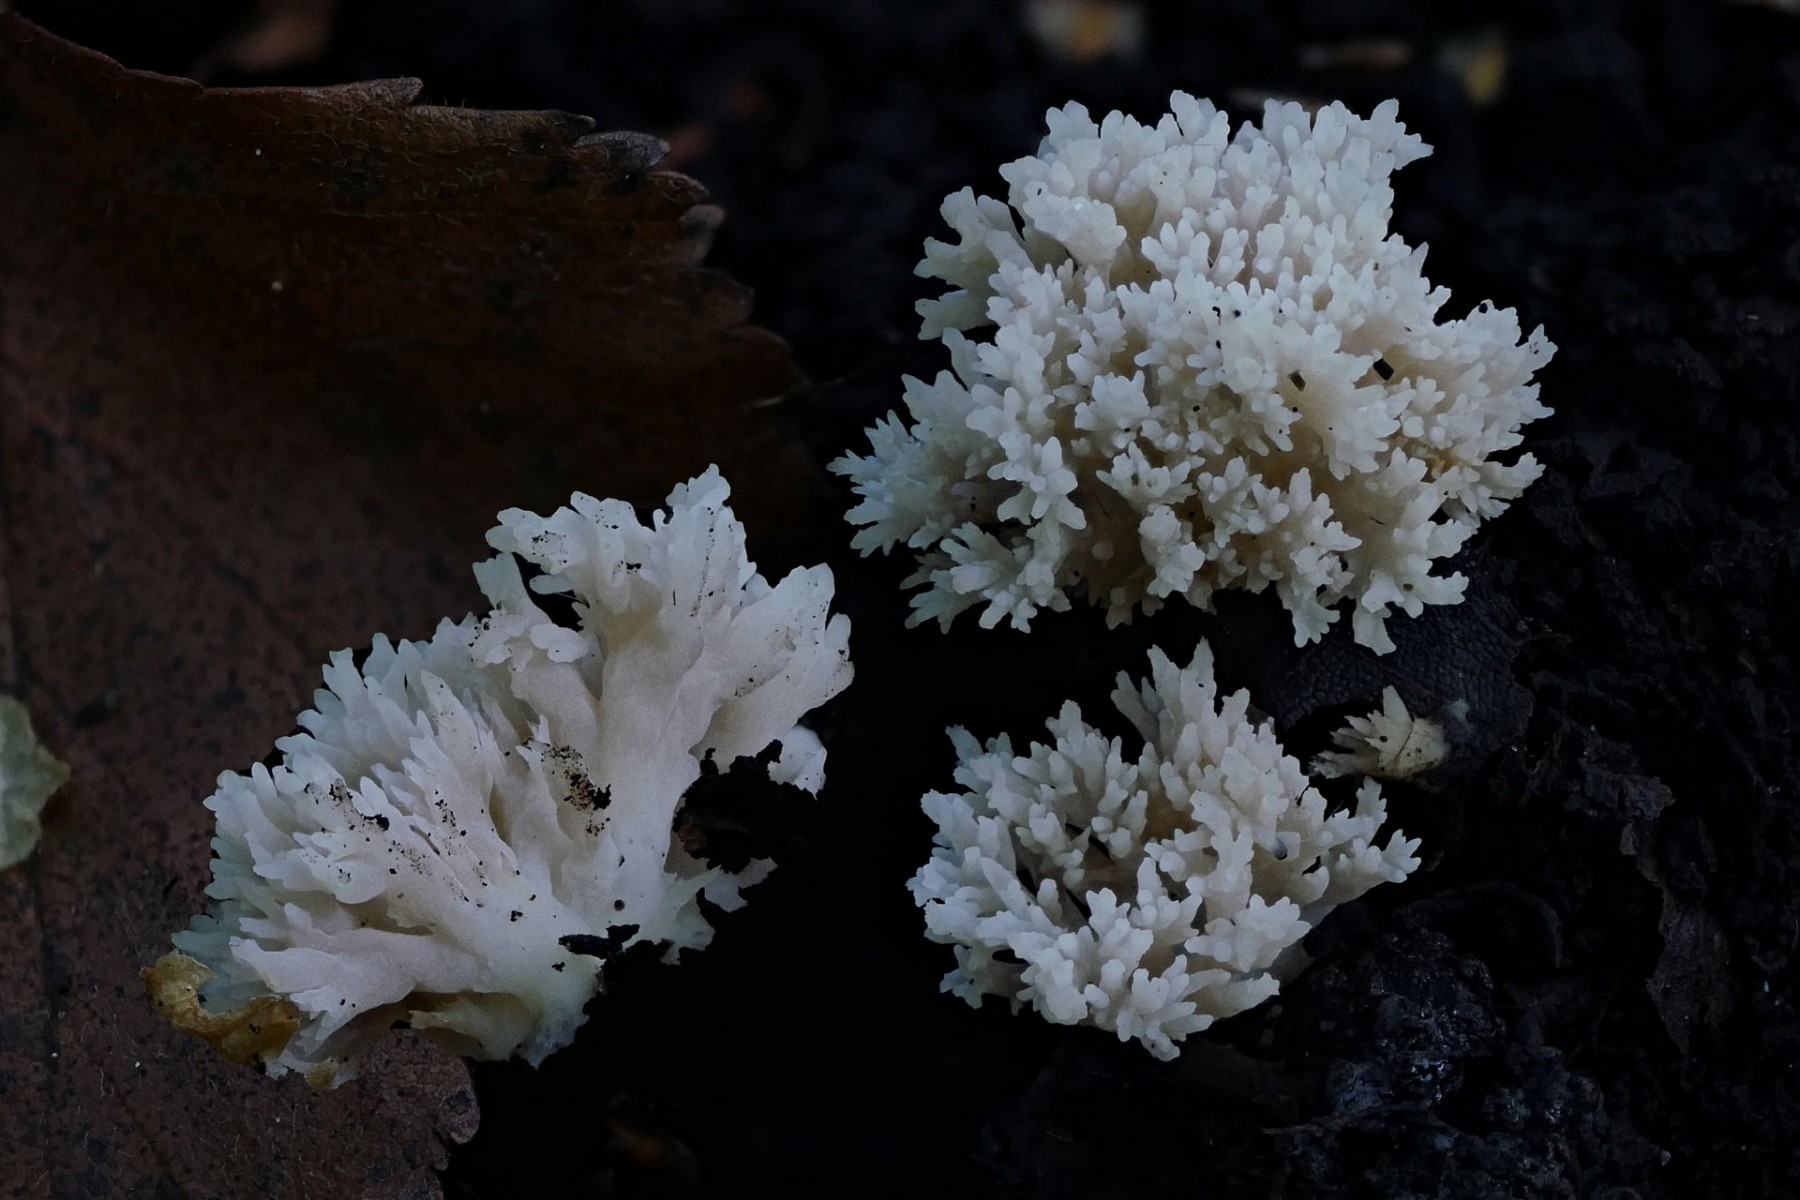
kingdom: Fungi
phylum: Basidiomycota
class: Agaricomycetes
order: Cantharellales
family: Hydnaceae
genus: Clavulina
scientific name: Clavulina
